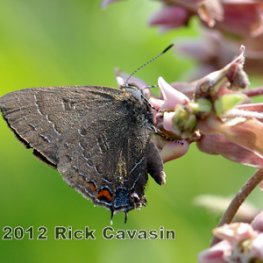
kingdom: Animalia
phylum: Arthropoda
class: Insecta
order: Lepidoptera
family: Lycaenidae
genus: Satyrium
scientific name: Satyrium calanus
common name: Banded Hairstreak
